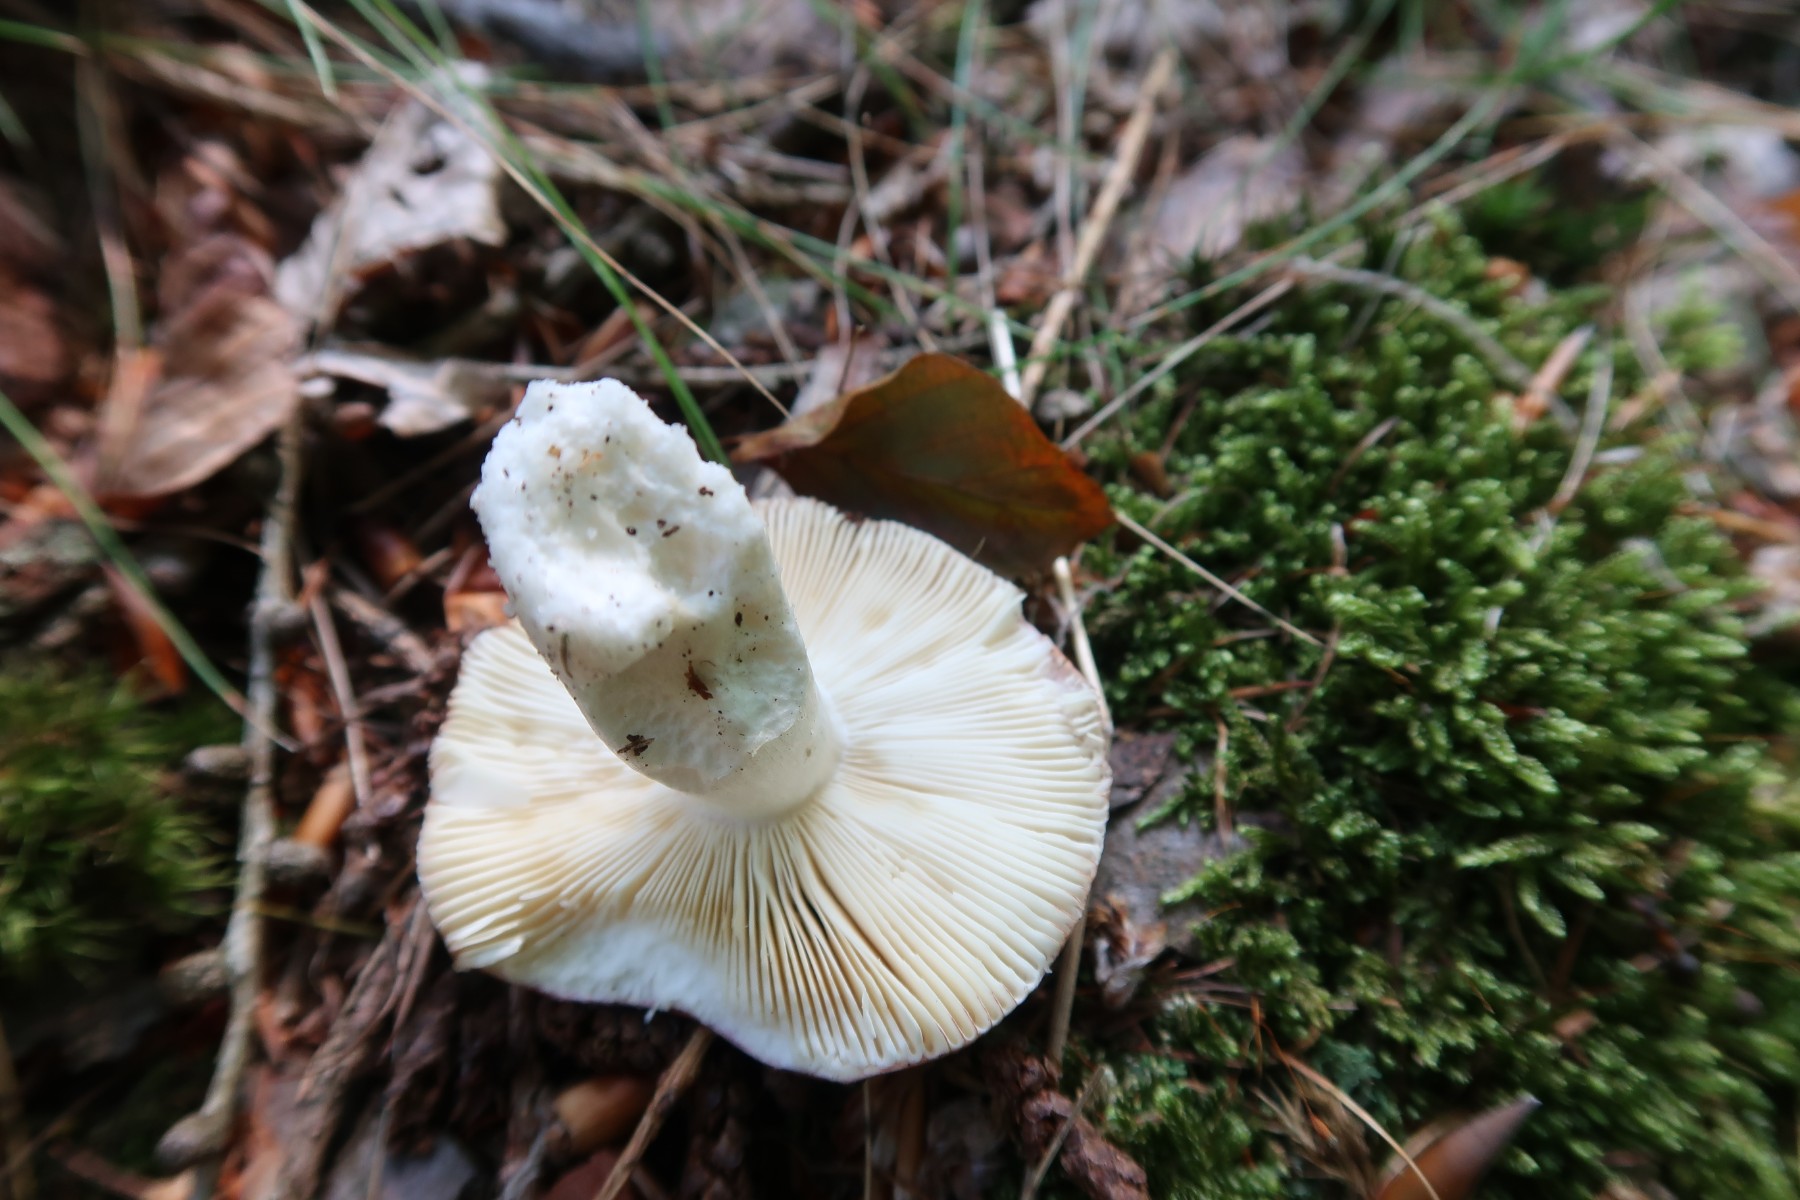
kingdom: Fungi
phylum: Basidiomycota
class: Agaricomycetes
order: Russulales
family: Russulaceae
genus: Russula
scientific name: Russula velenovskyi
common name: orangerød skørhat
